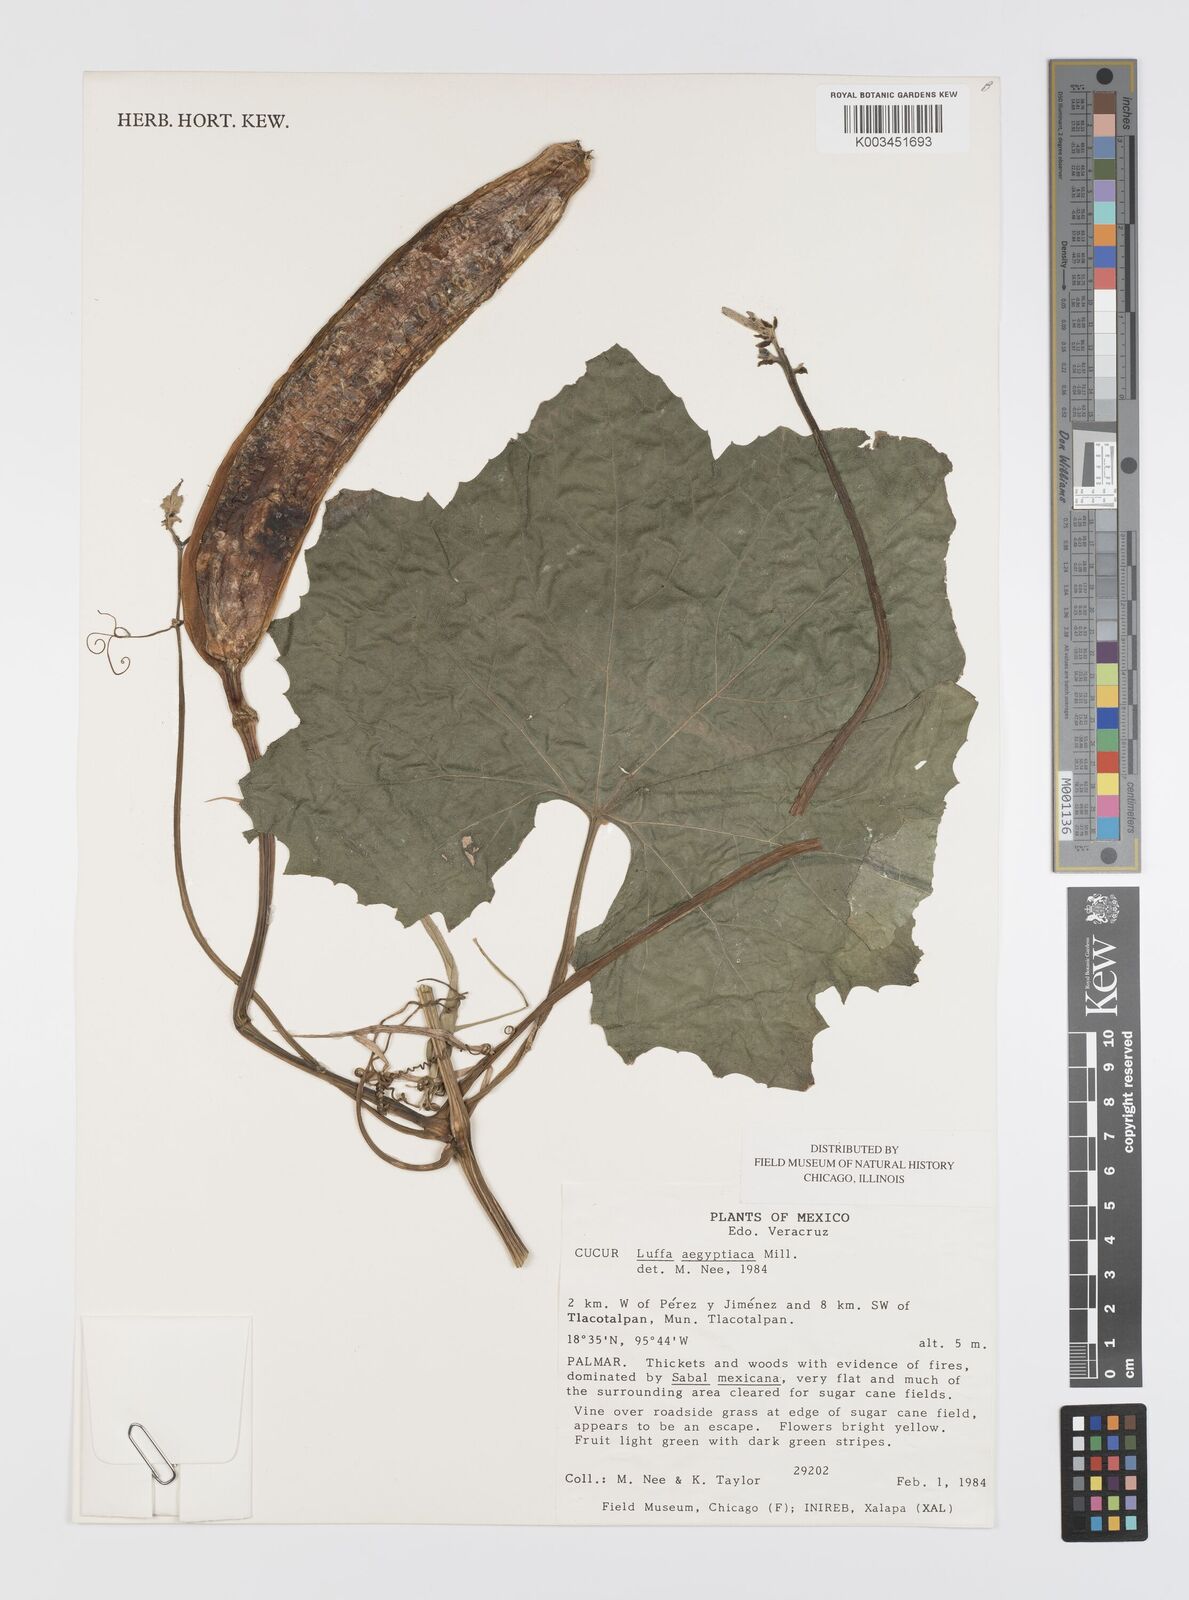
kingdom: Plantae
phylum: Tracheophyta
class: Magnoliopsida
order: Cucurbitales
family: Cucurbitaceae
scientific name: Cucurbitaceae
